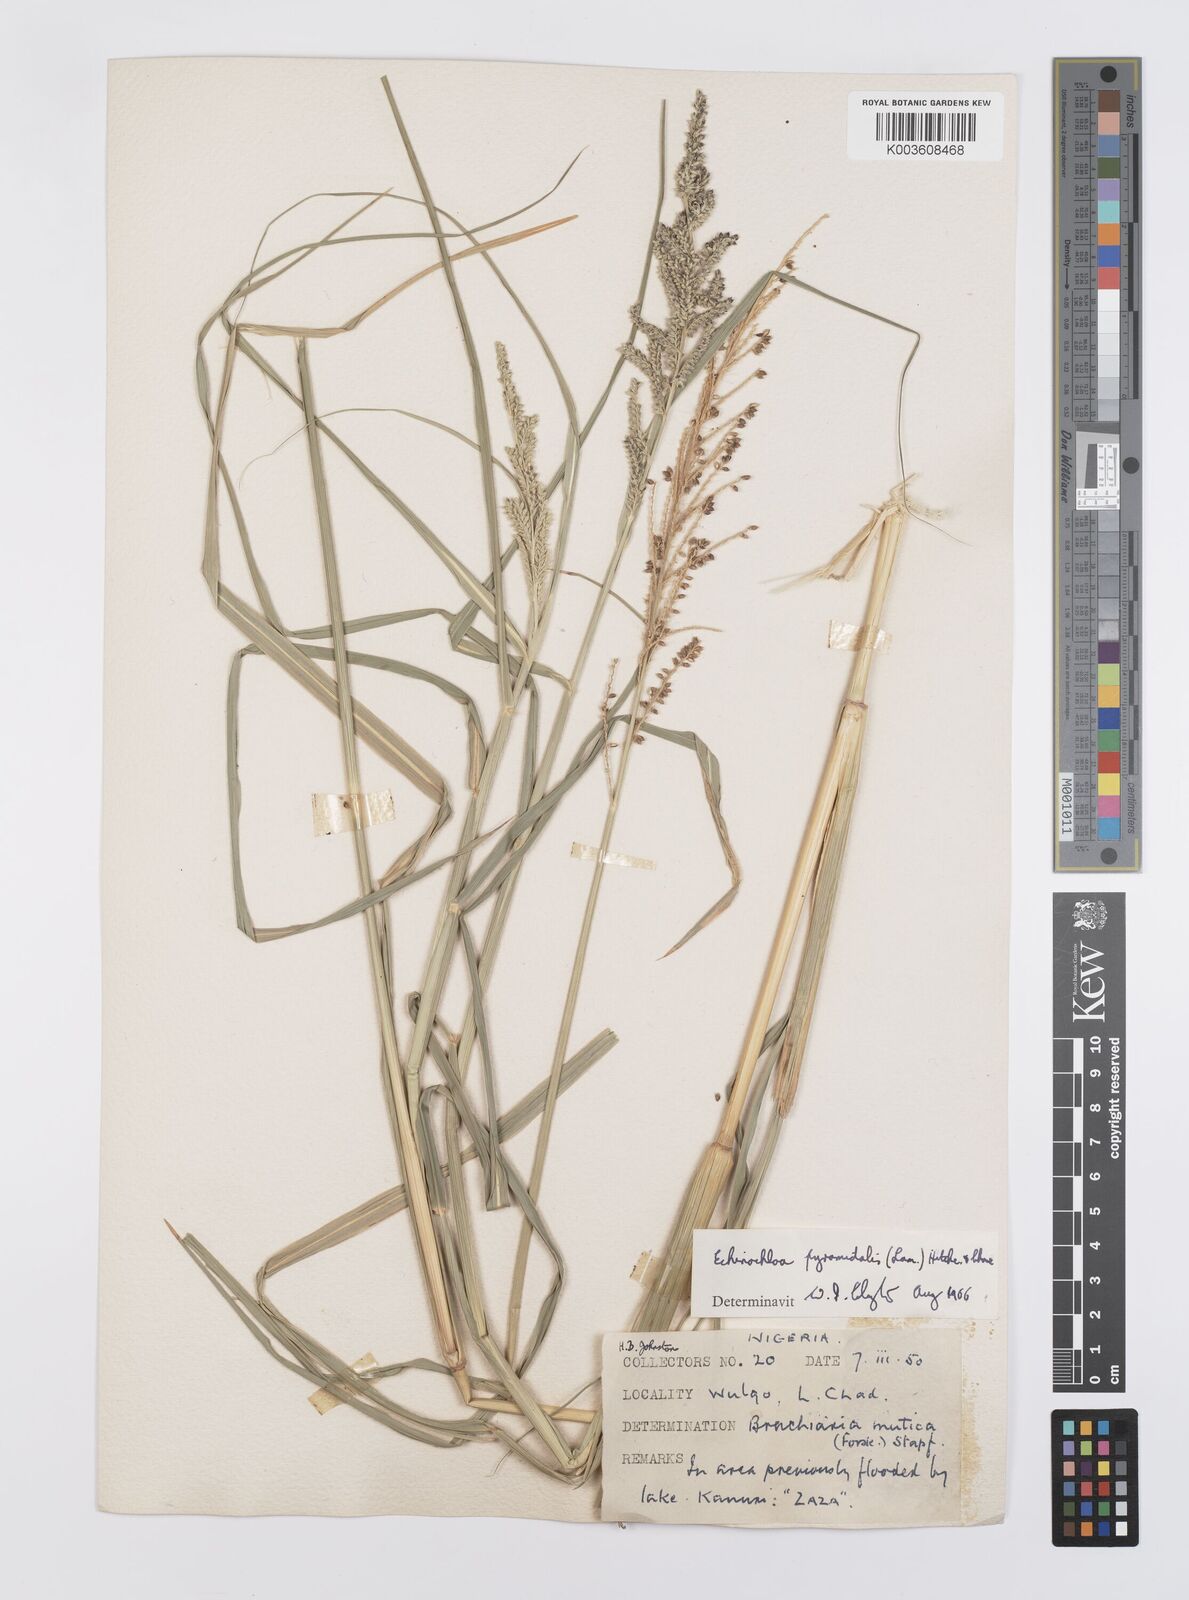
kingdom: Plantae
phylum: Tracheophyta
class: Liliopsida
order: Poales
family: Poaceae
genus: Echinochloa
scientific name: Echinochloa pyramidalis
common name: Antelope grass
